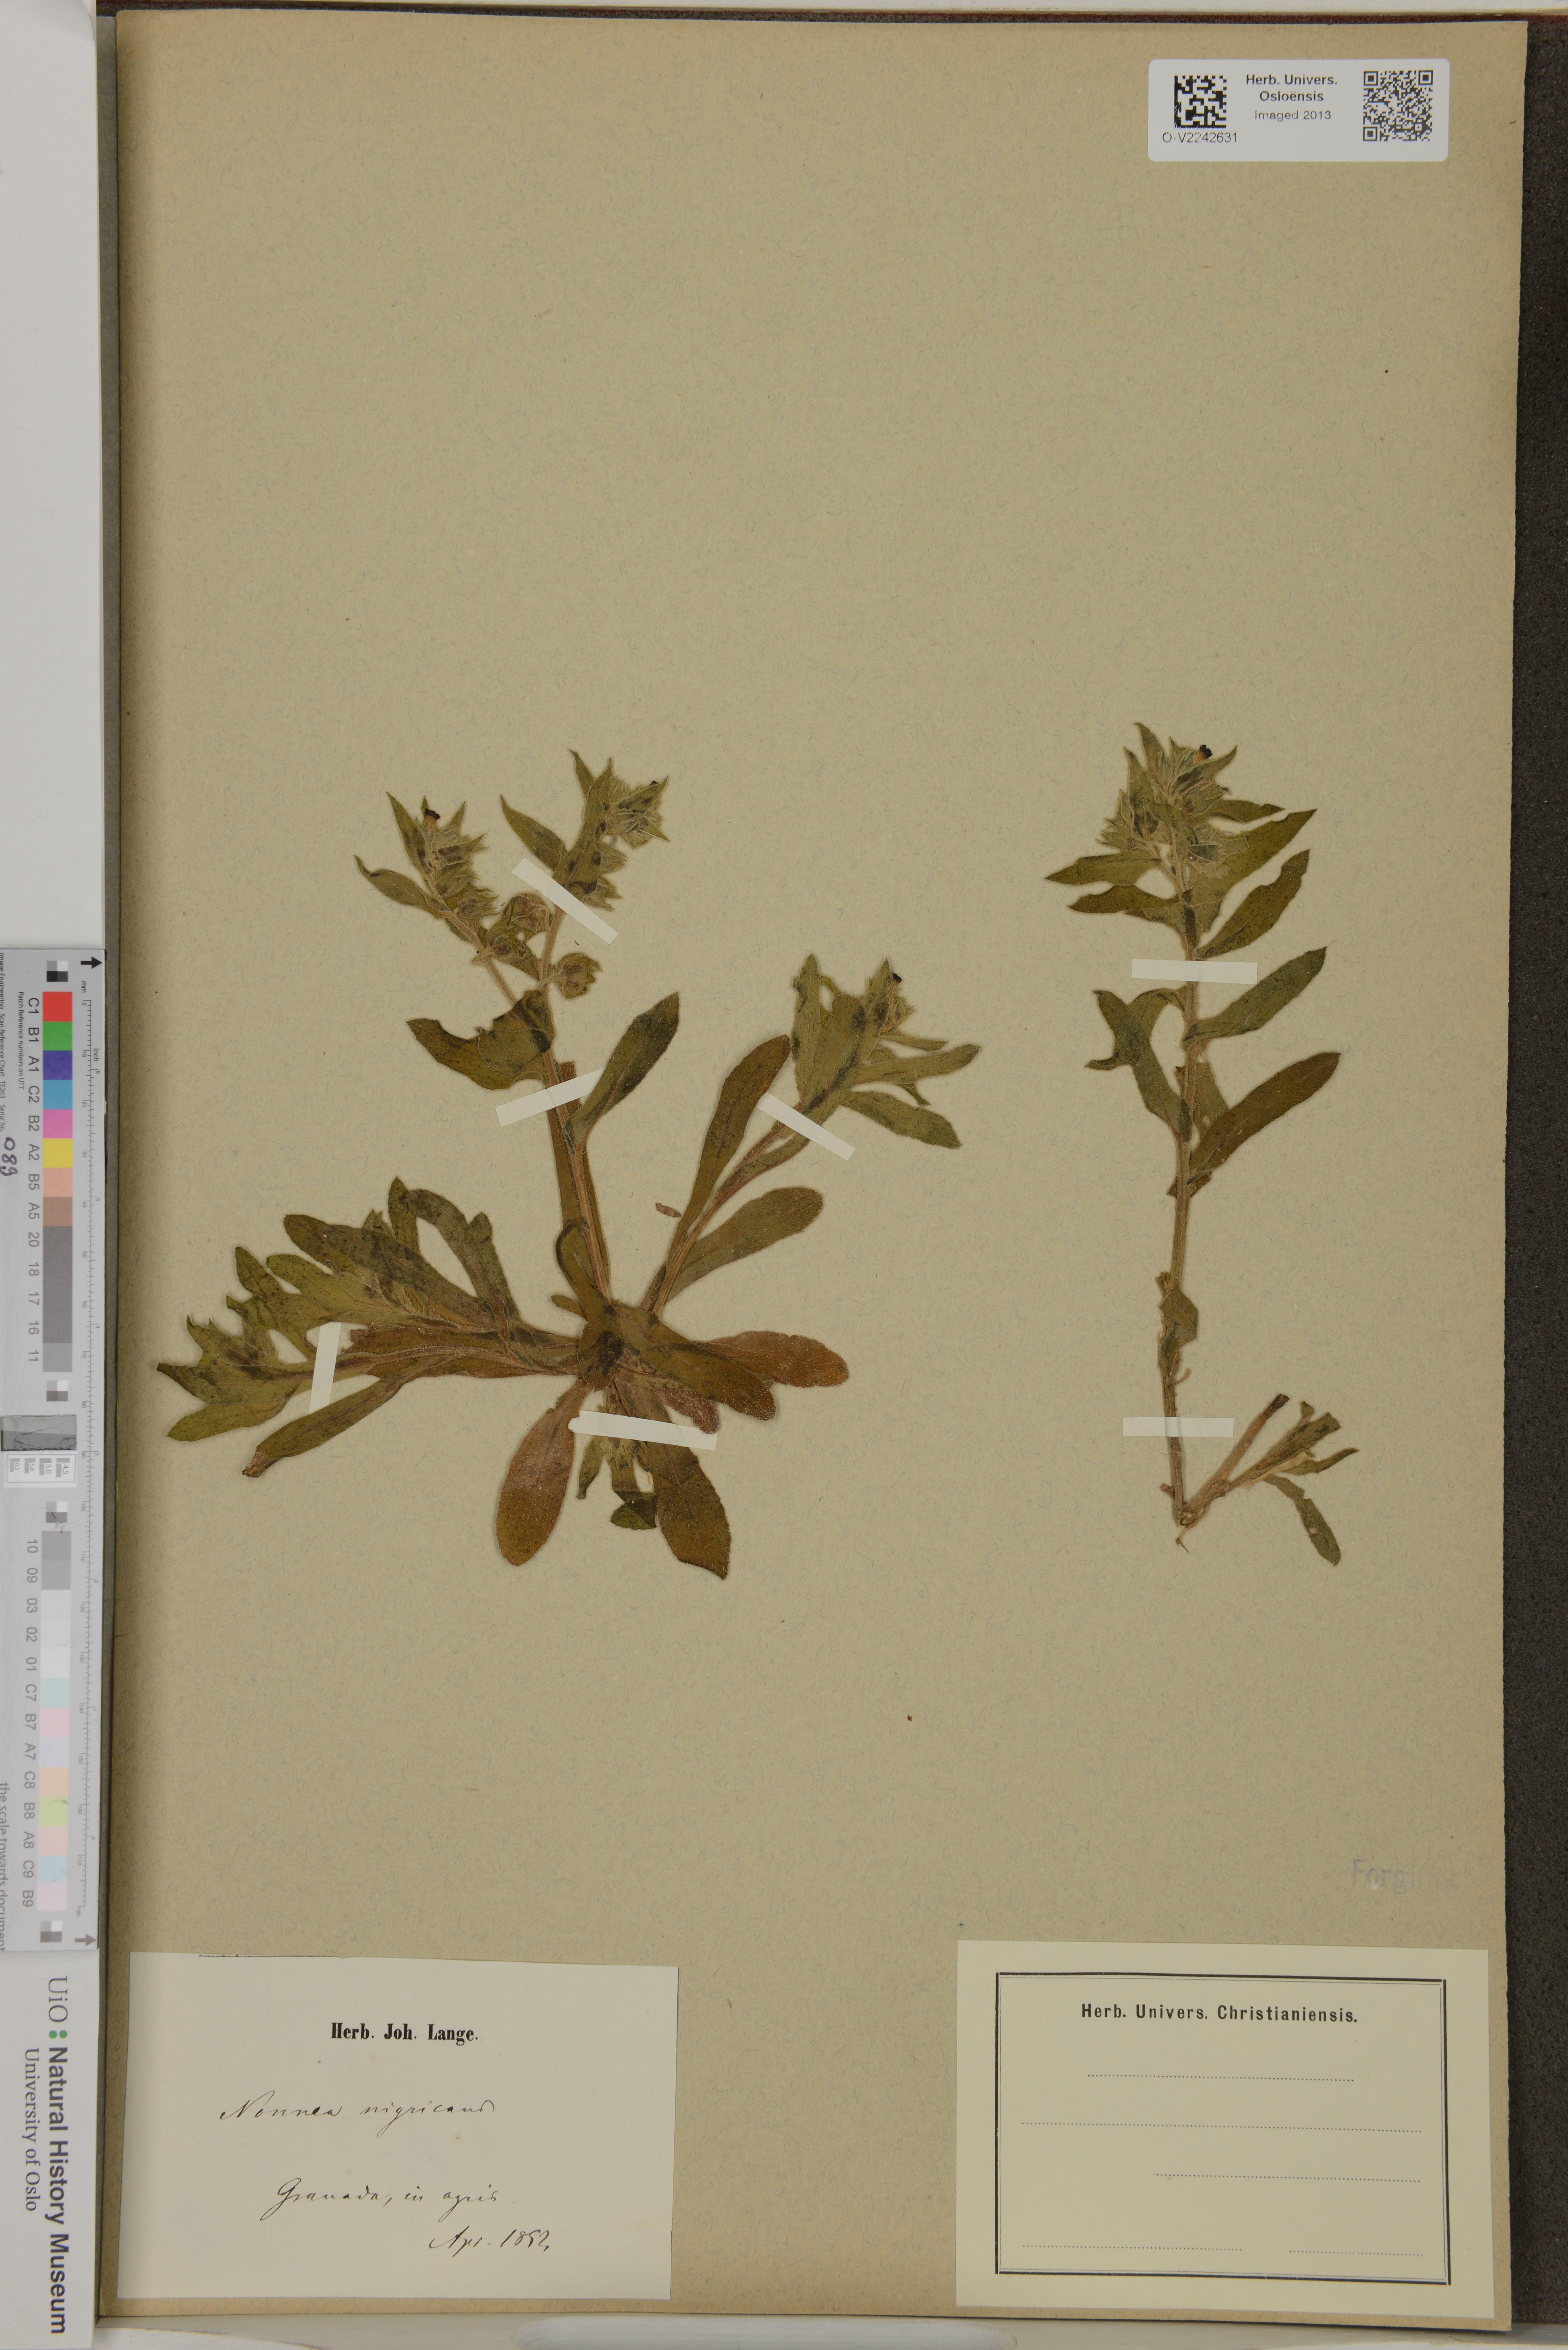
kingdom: Plantae
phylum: Tracheophyta
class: Magnoliopsida
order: Boraginales
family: Boraginaceae
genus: Nonea
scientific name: Nonea vesicaria
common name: Red monkswort
